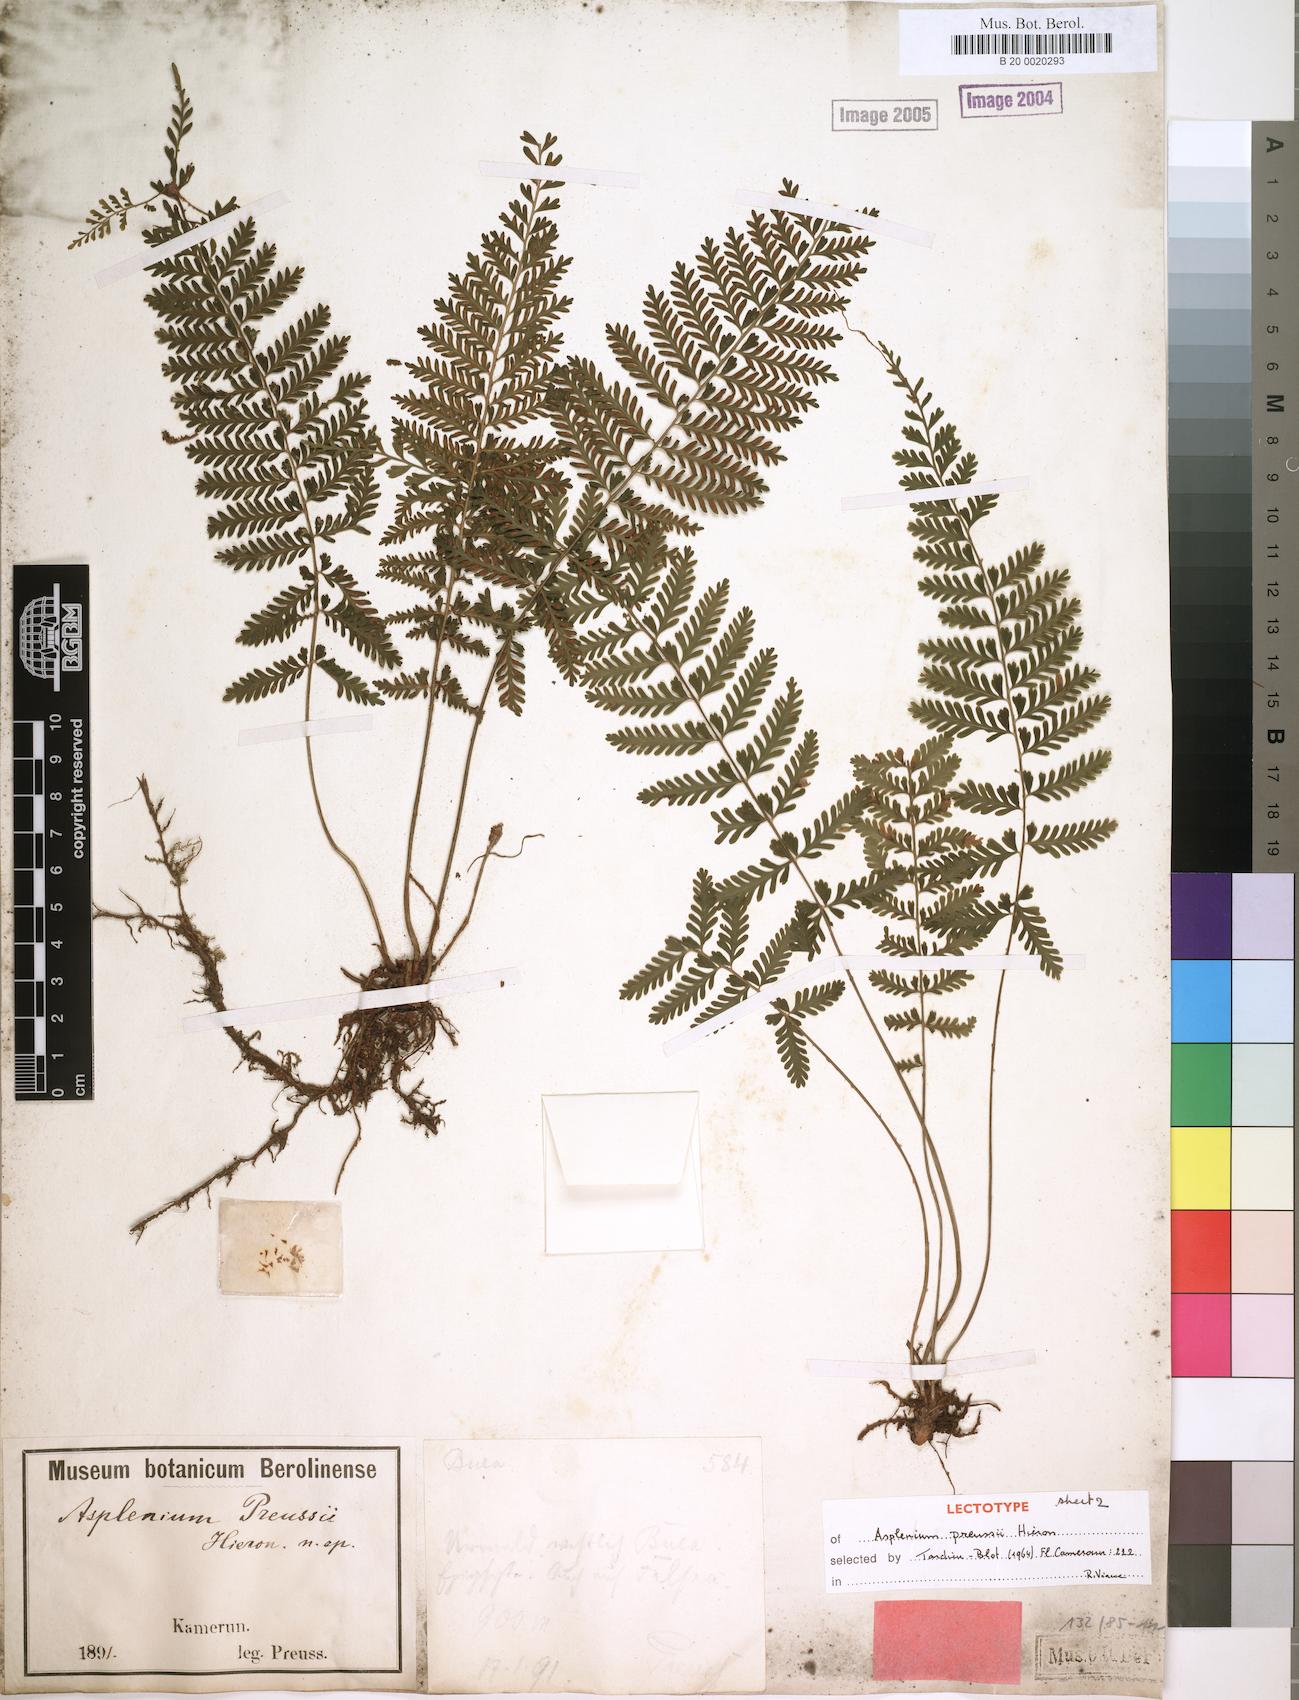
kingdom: Plantae
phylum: Tracheophyta
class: Polypodiopsida
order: Polypodiales
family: Aspleniaceae
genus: Asplenium
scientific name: Asplenium preussii
